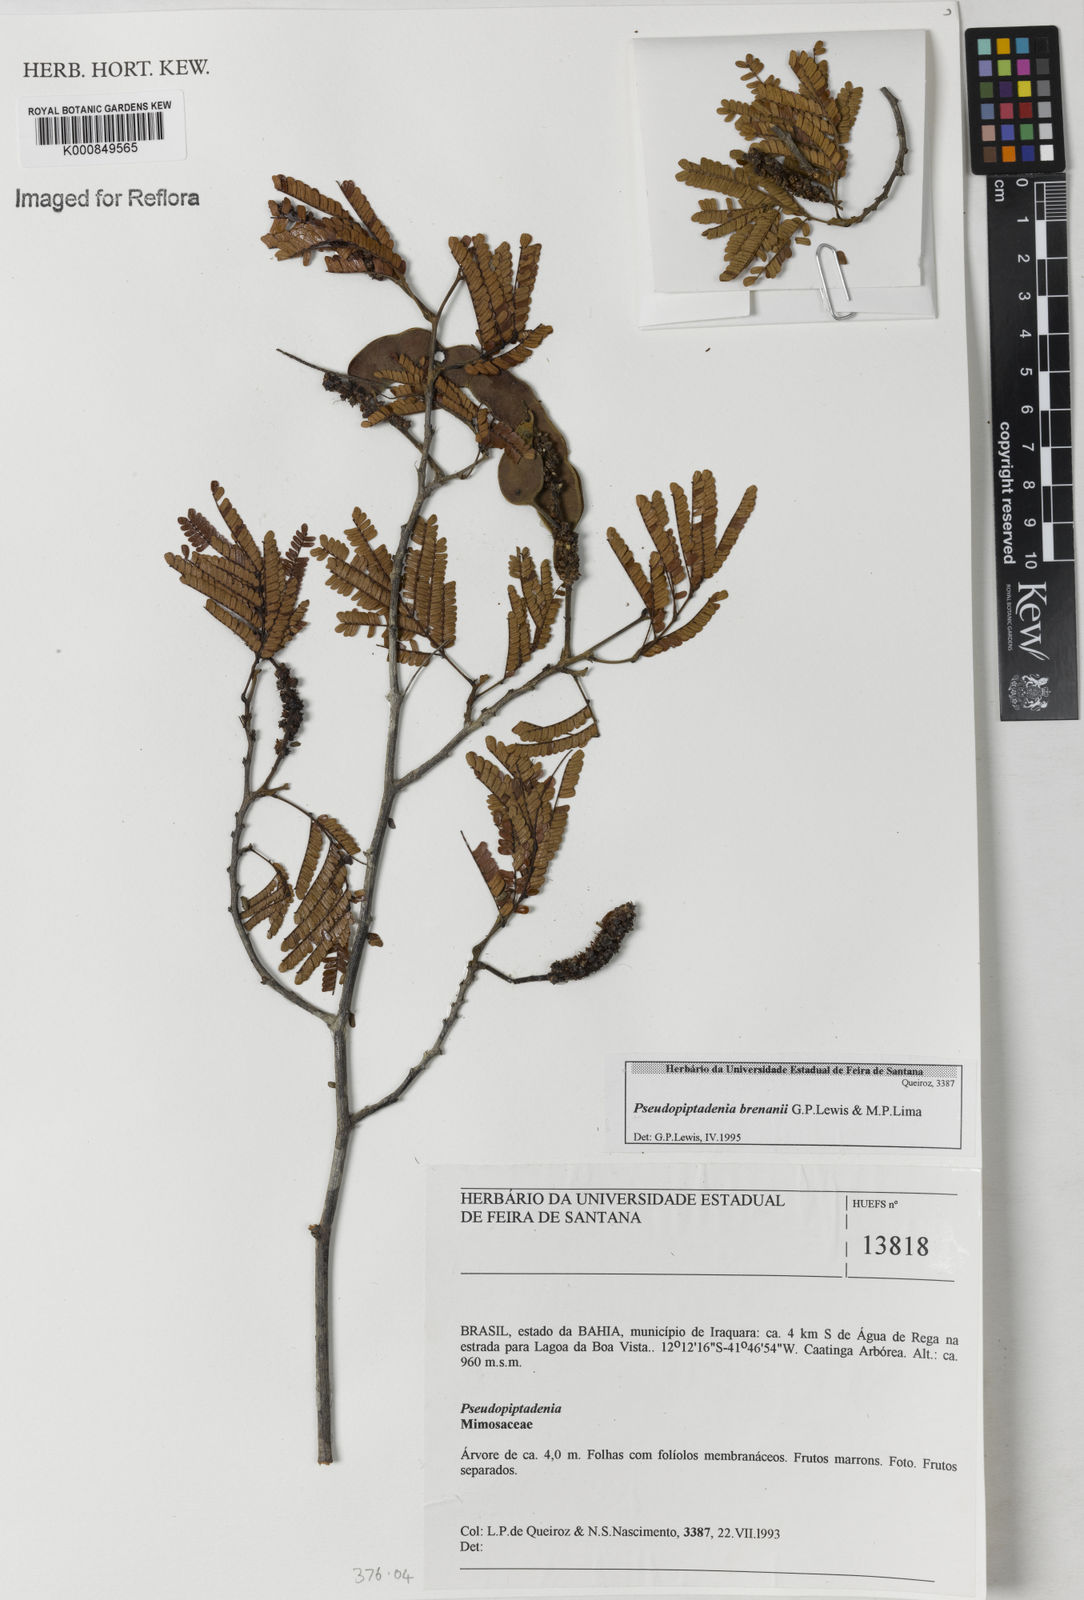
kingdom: Plantae
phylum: Tracheophyta
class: Magnoliopsida
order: Fabales
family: Fabaceae
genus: Pseudopiptadenia
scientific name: Pseudopiptadenia brenanii
